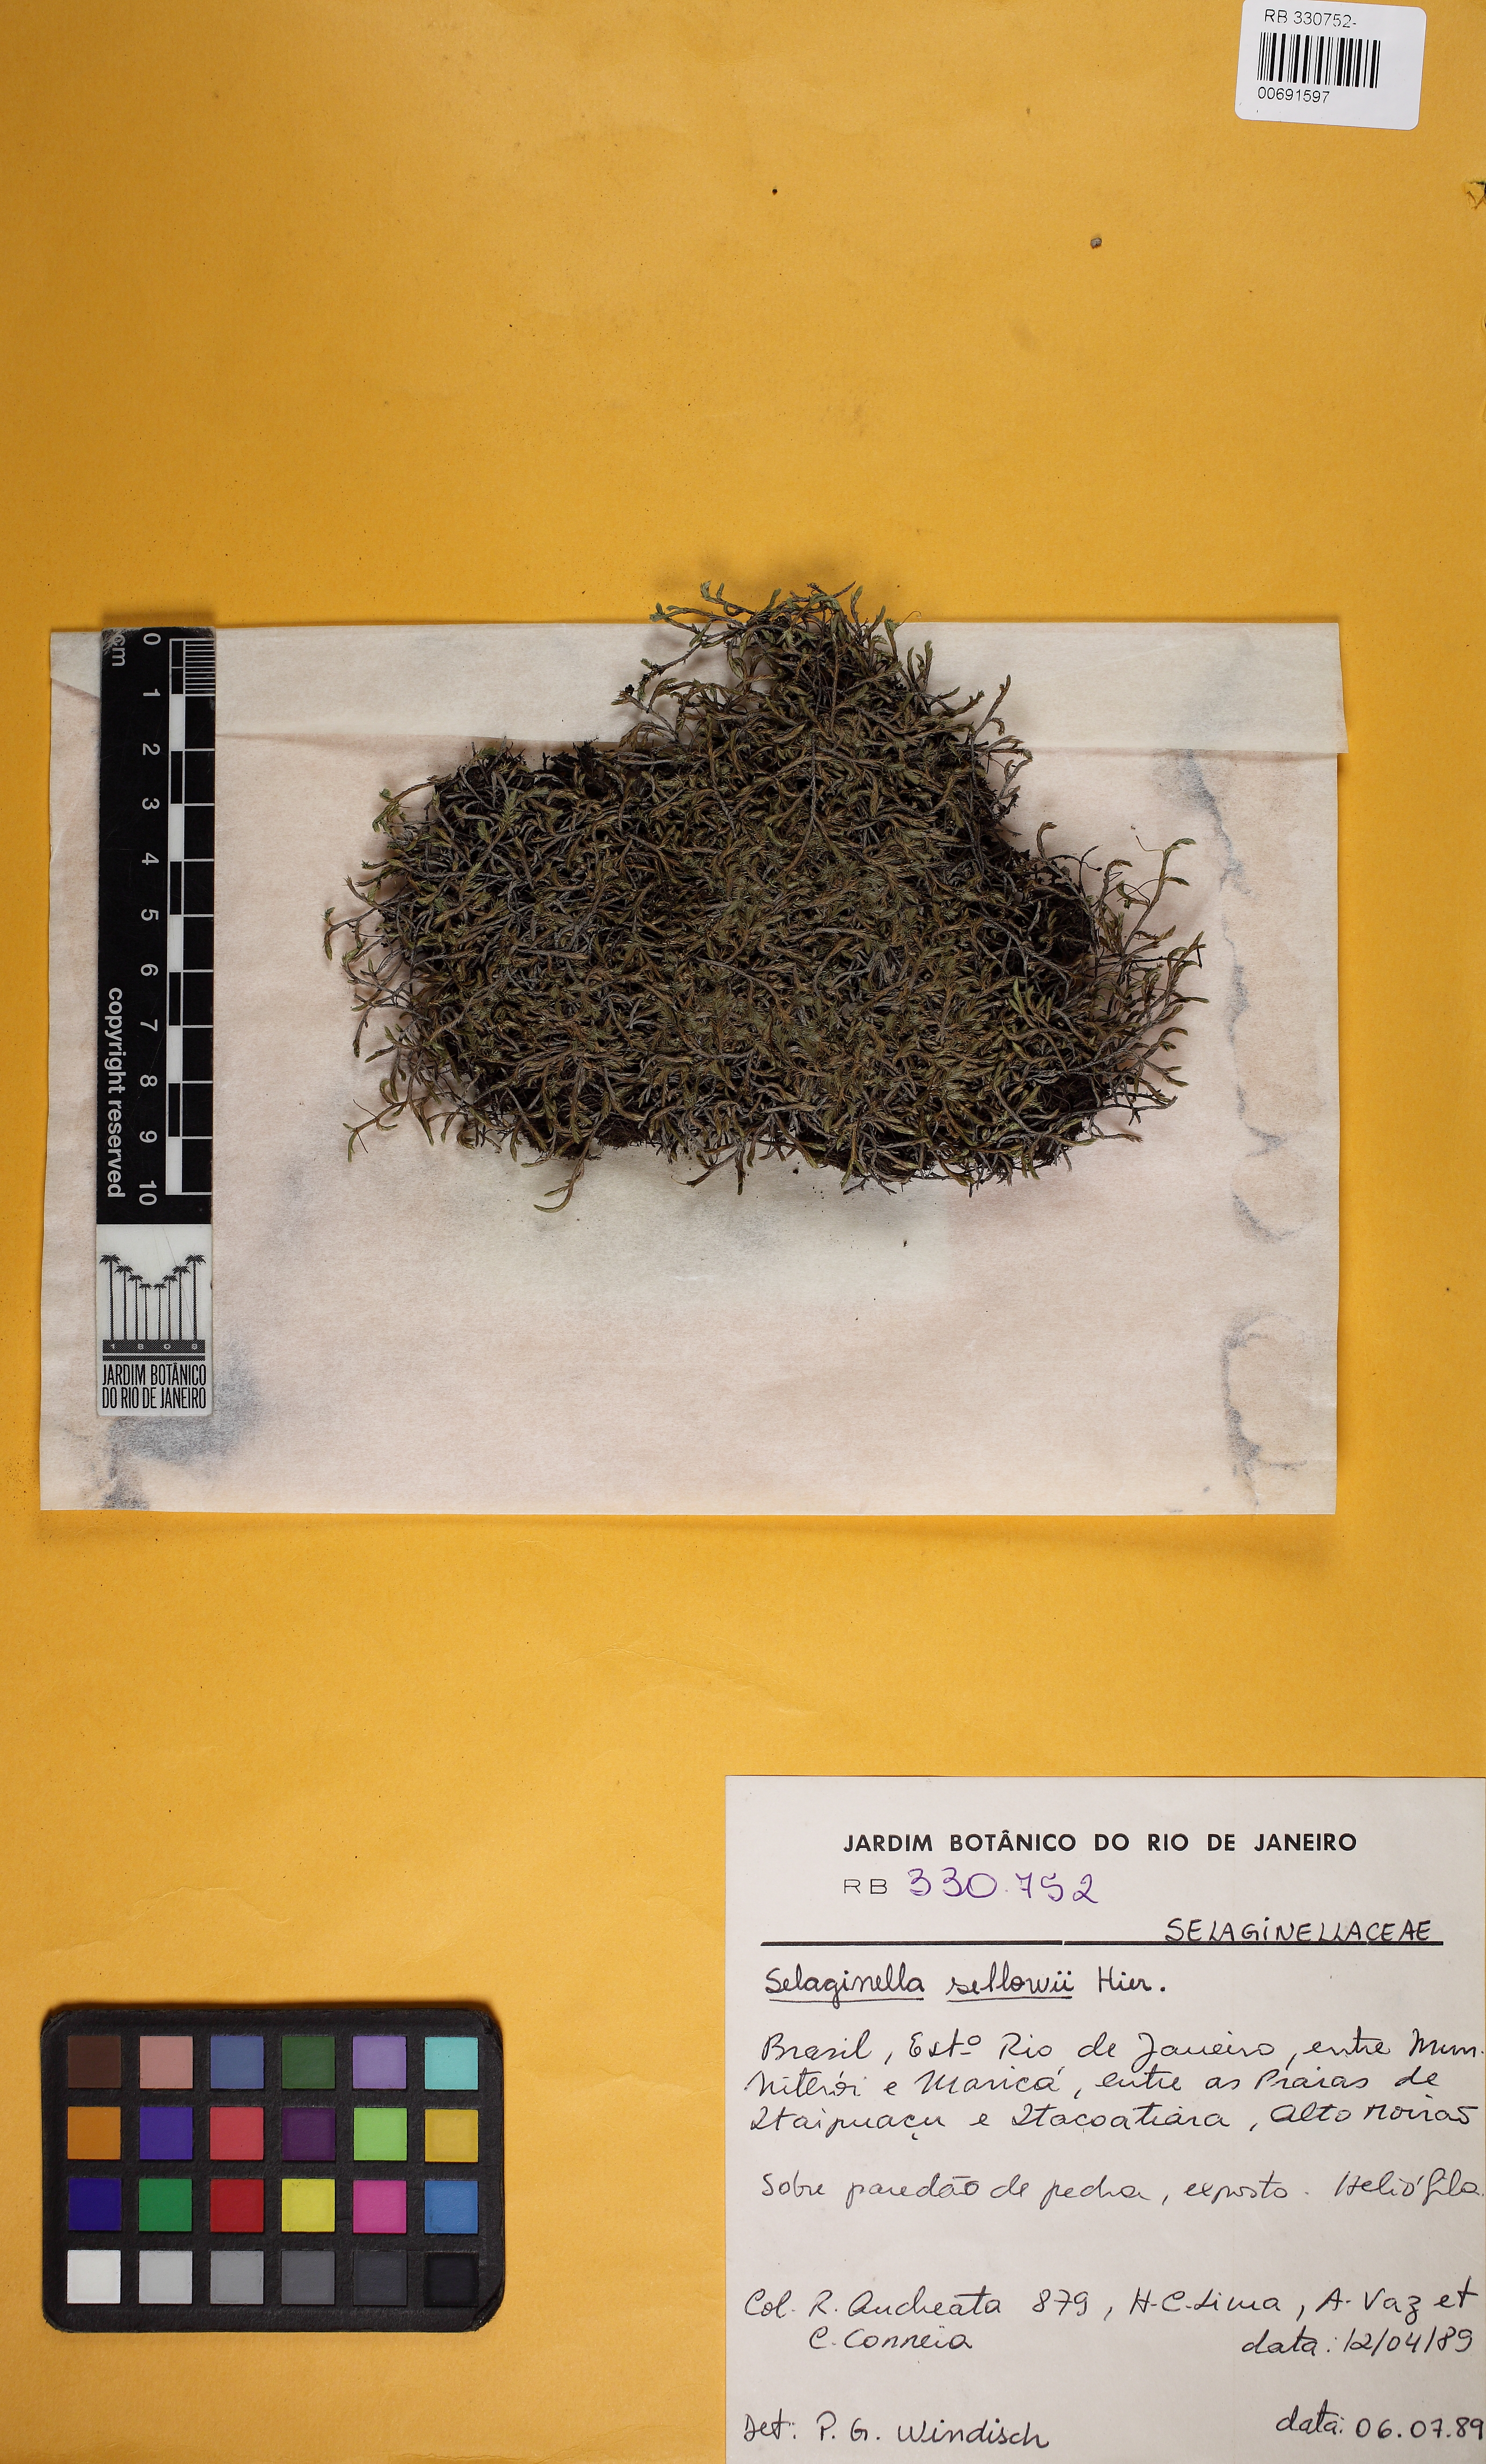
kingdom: Plantae
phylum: Tracheophyta
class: Lycopodiopsida
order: Selaginellales
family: Selaginellaceae
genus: Selaginella
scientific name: Selaginella sellowii
